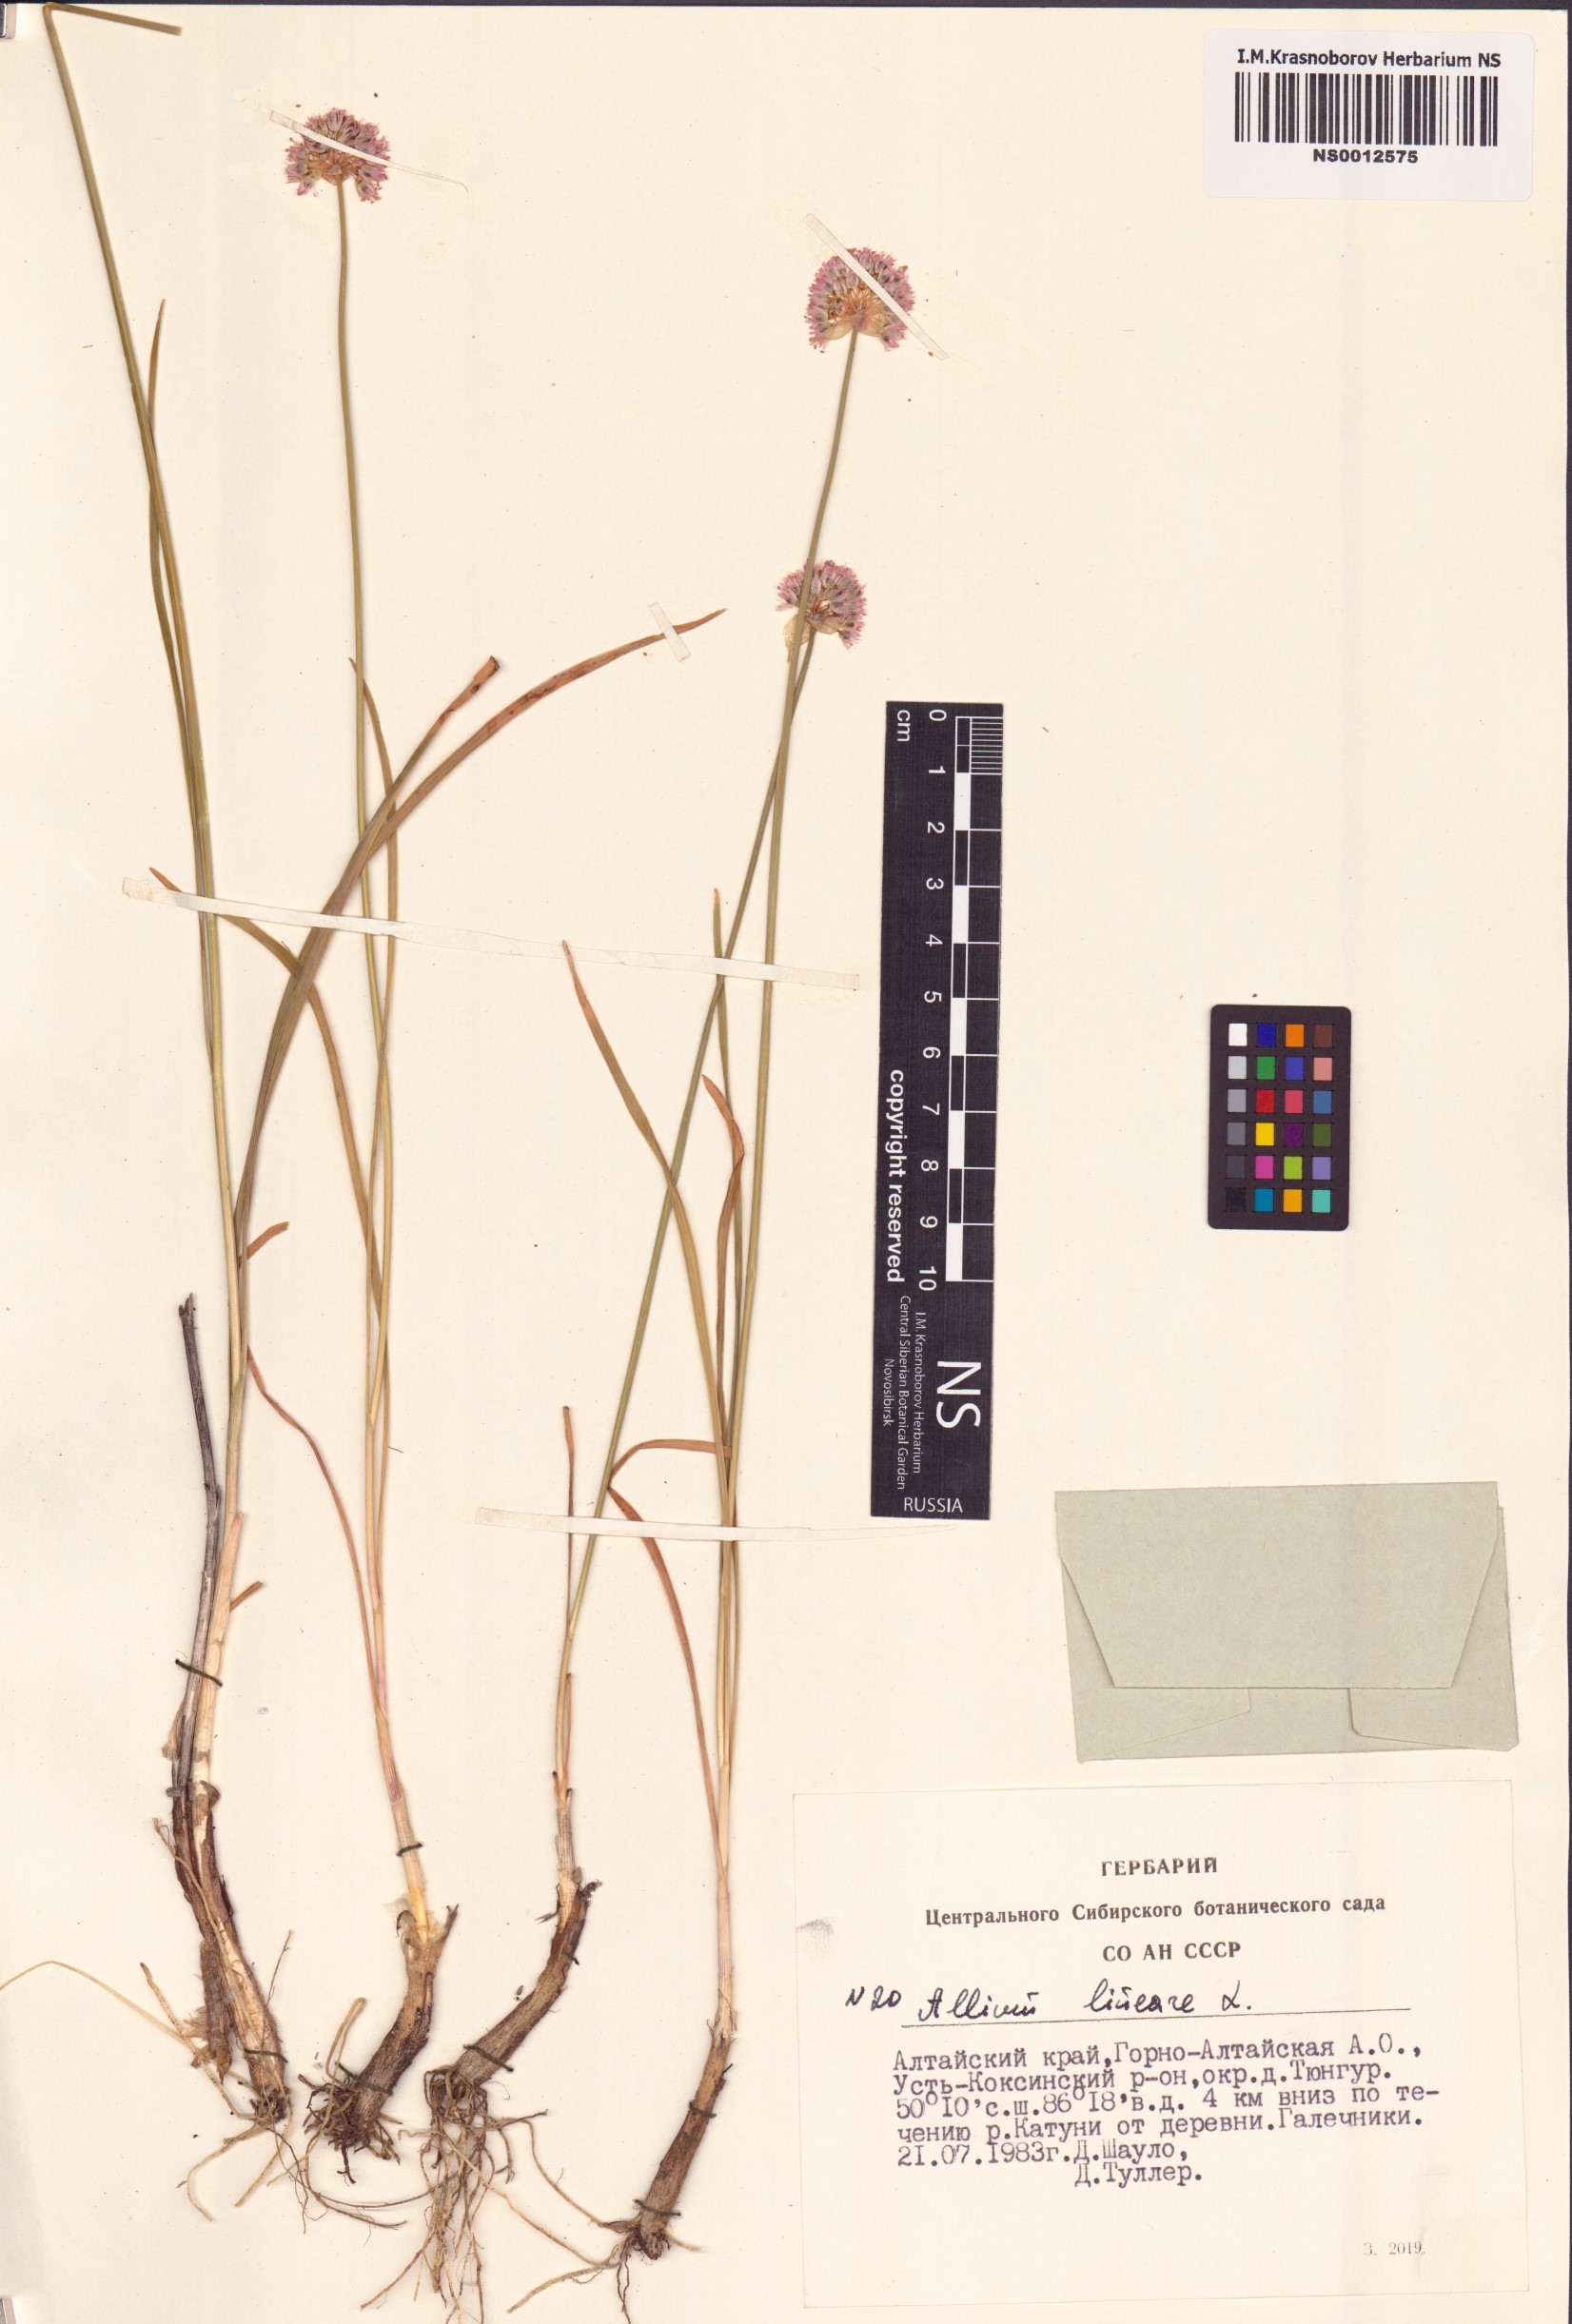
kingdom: Plantae
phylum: Tracheophyta
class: Liliopsida
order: Asparagales
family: Amaryllidaceae
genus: Allium
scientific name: Allium lineare
